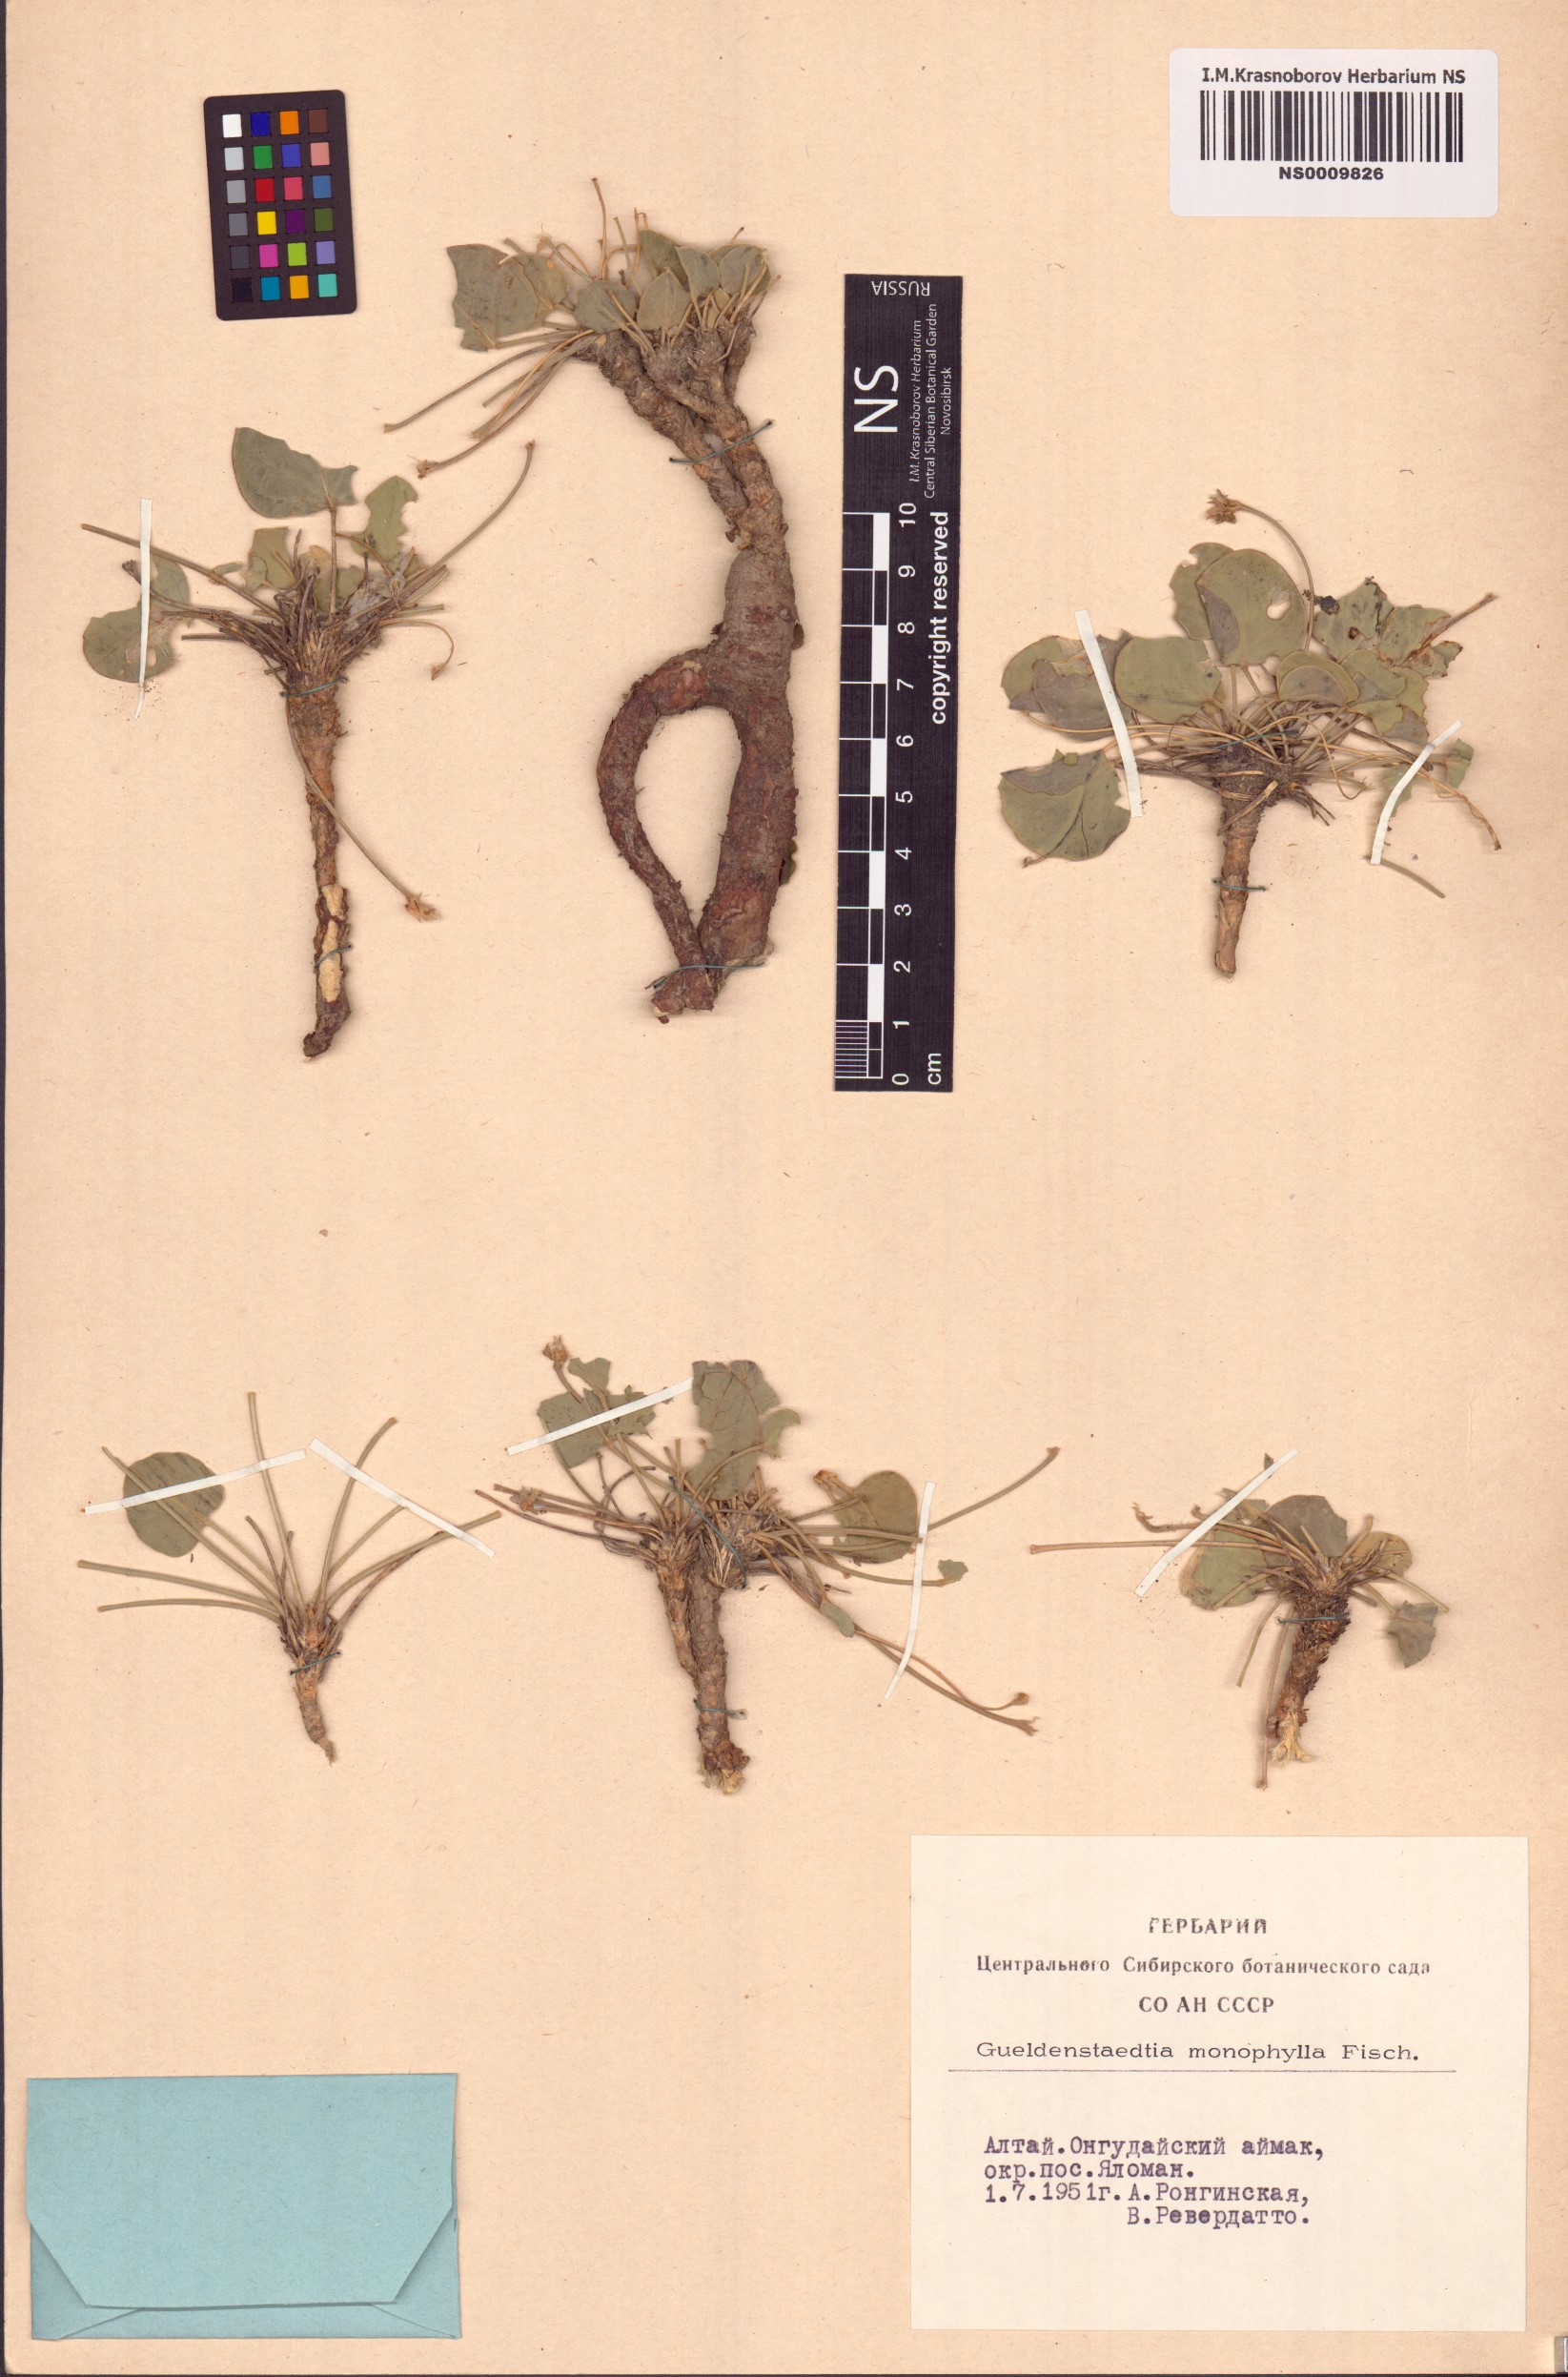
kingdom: Plantae
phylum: Tracheophyta
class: Magnoliopsida
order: Fabales
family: Fabaceae
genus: Gueldenstaedtia
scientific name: Gueldenstaedtia monophylla
